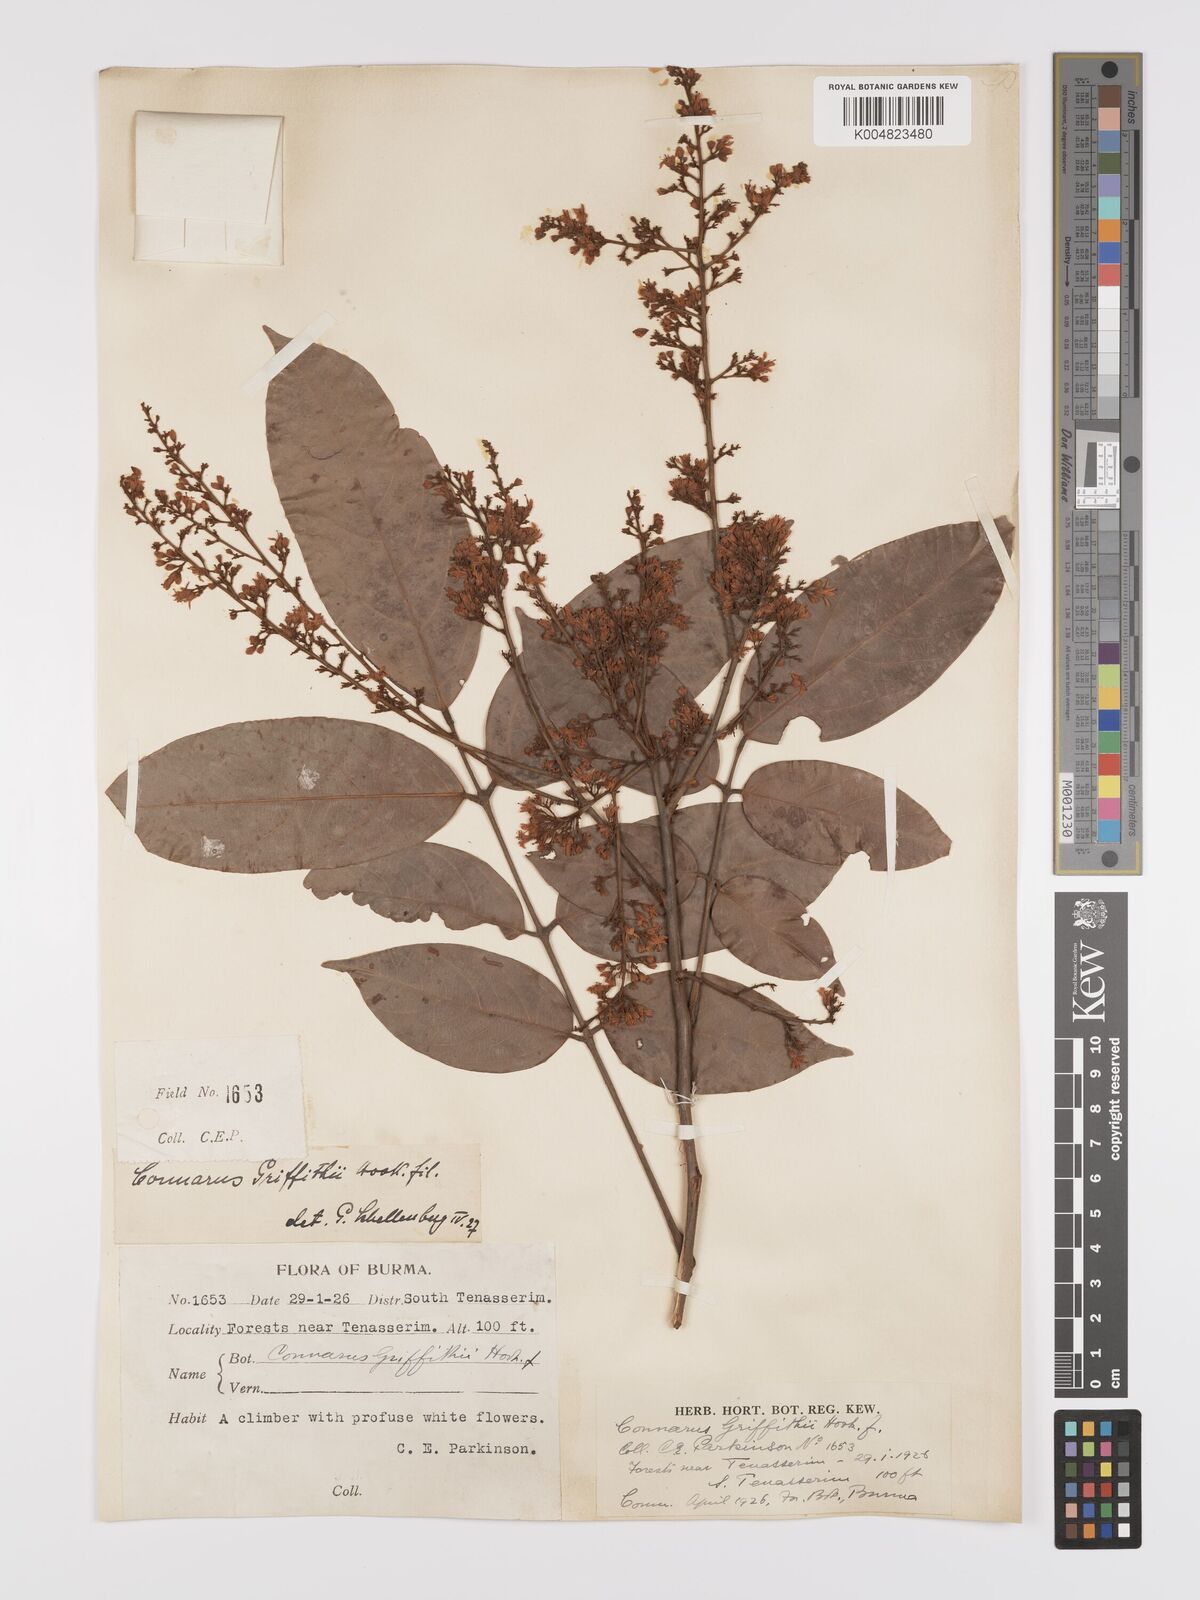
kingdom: Plantae
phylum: Tracheophyta
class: Magnoliopsida
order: Oxalidales
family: Connaraceae
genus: Connarus
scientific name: Connarus semidecandrus
